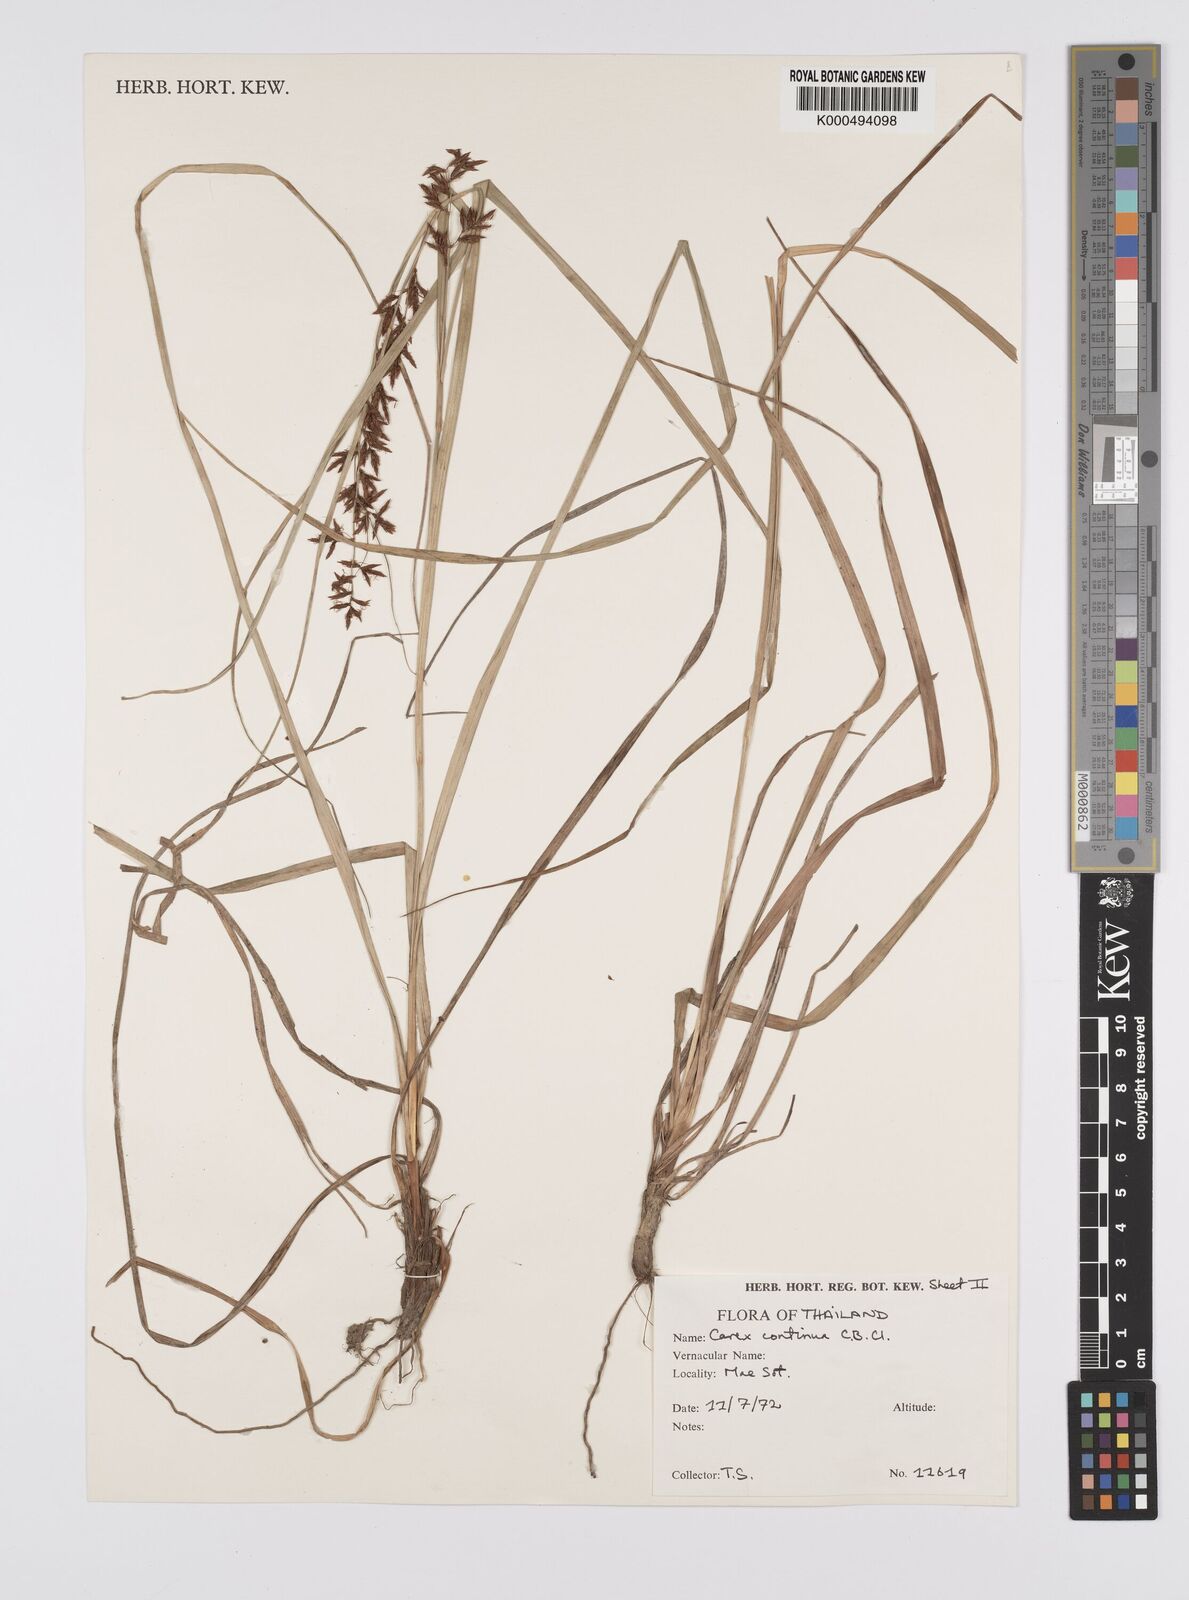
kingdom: Plantae
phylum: Tracheophyta
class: Liliopsida
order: Poales
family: Cyperaceae
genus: Carex
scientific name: Carex continua
